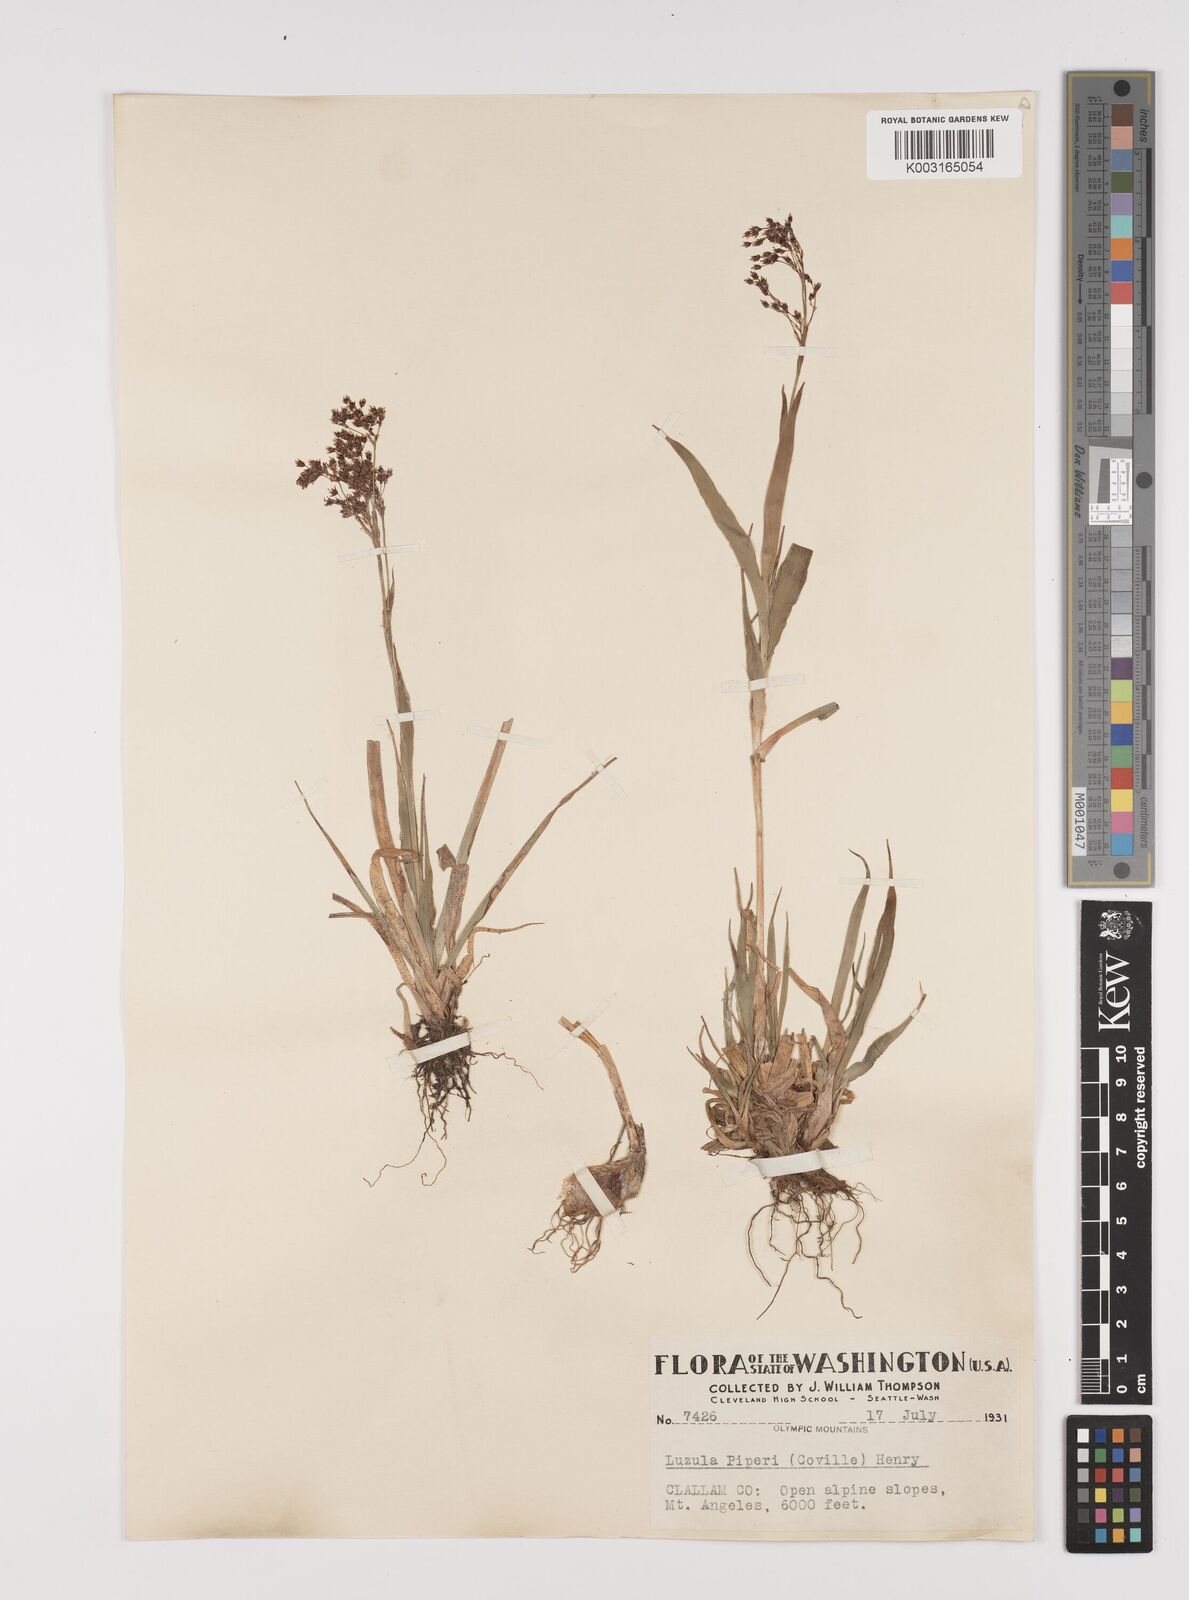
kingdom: Plantae
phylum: Tracheophyta
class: Liliopsida
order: Poales
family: Juncaceae
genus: Luzula
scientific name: Luzula piperi
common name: Piper's wood-rush
